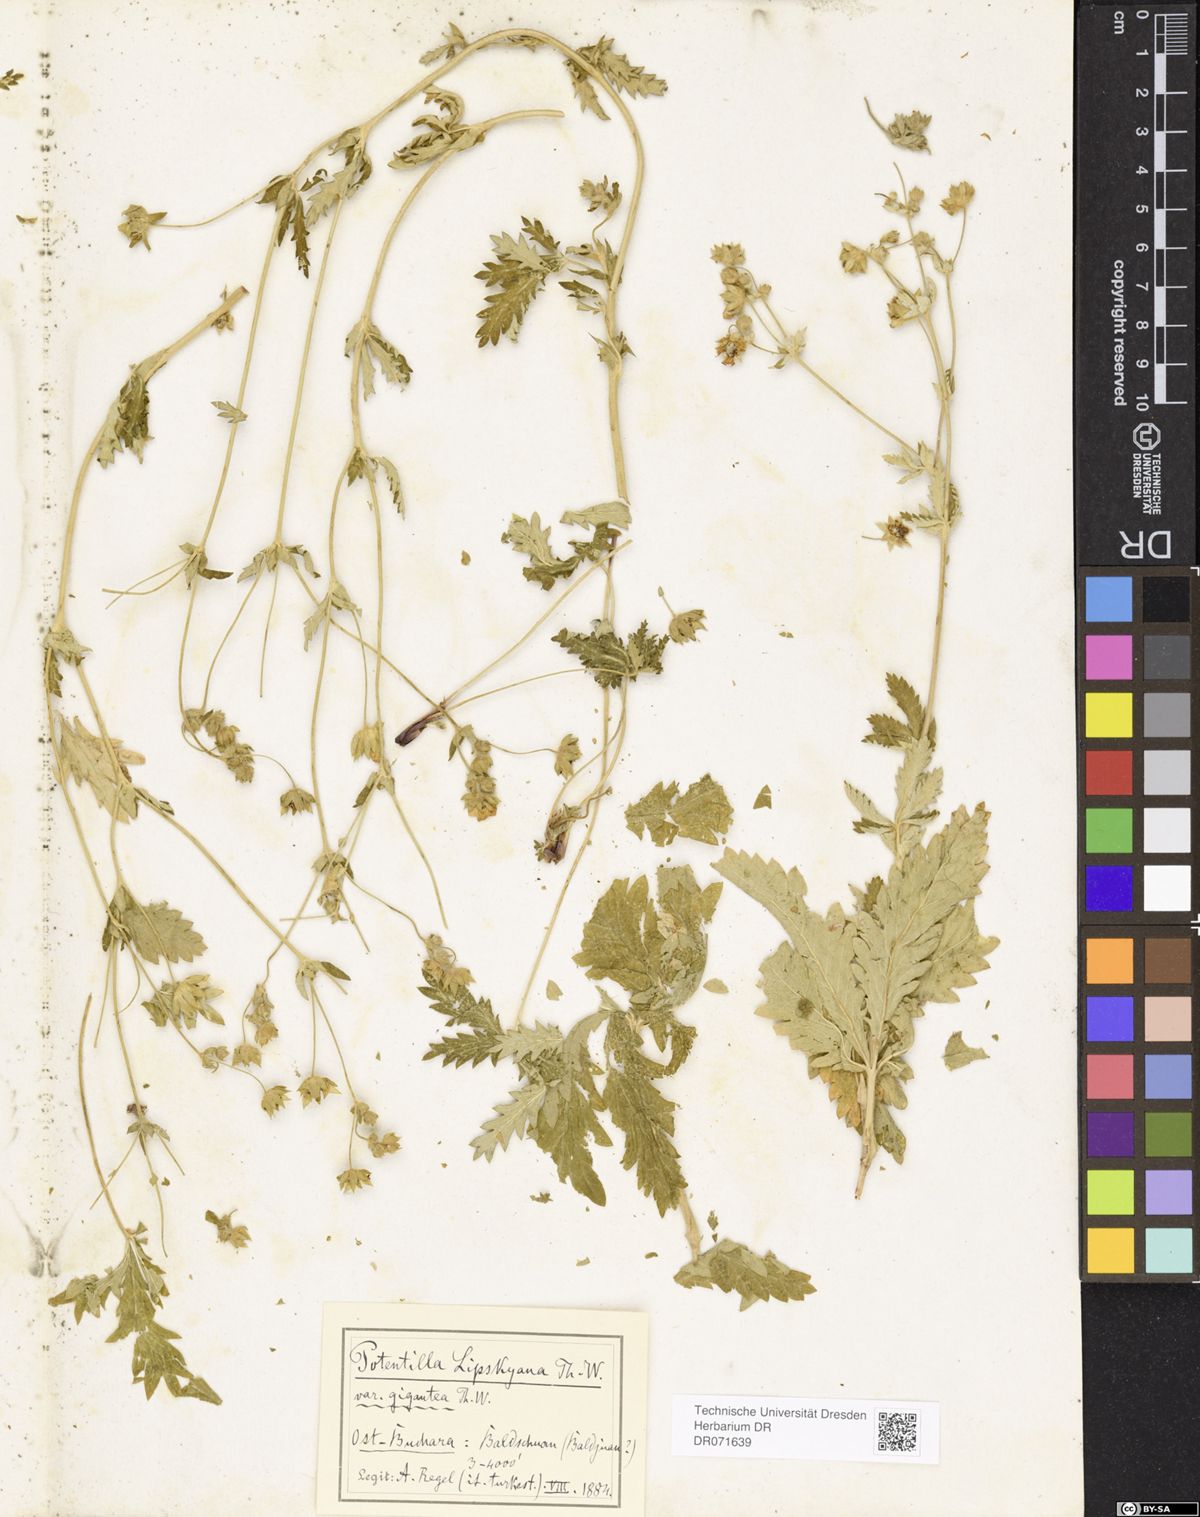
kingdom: Plantae
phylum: Tracheophyta
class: Magnoliopsida
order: Rosales
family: Rosaceae
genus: Potentilla
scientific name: Potentilla mollissima
